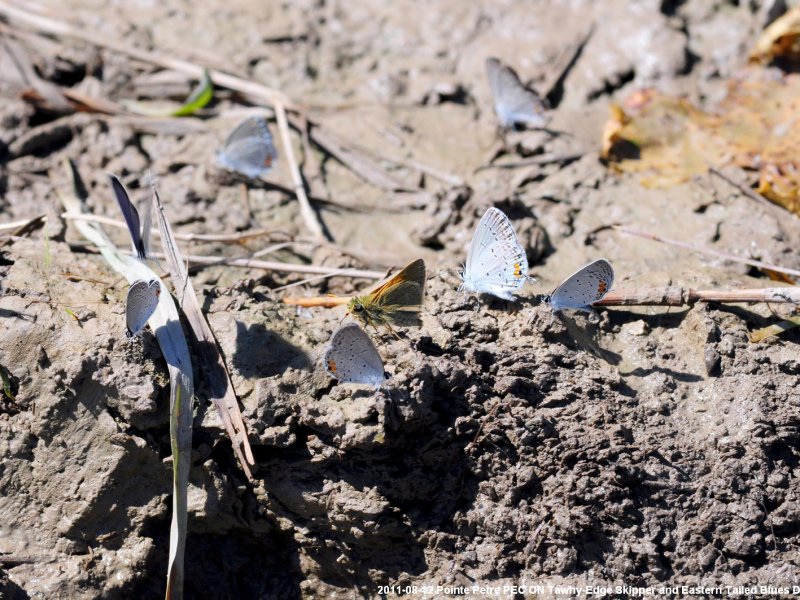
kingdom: Animalia
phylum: Arthropoda
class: Insecta
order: Lepidoptera
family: Hesperiidae
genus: Polites
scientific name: Polites themistocles
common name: Tawny-edged Skipper
